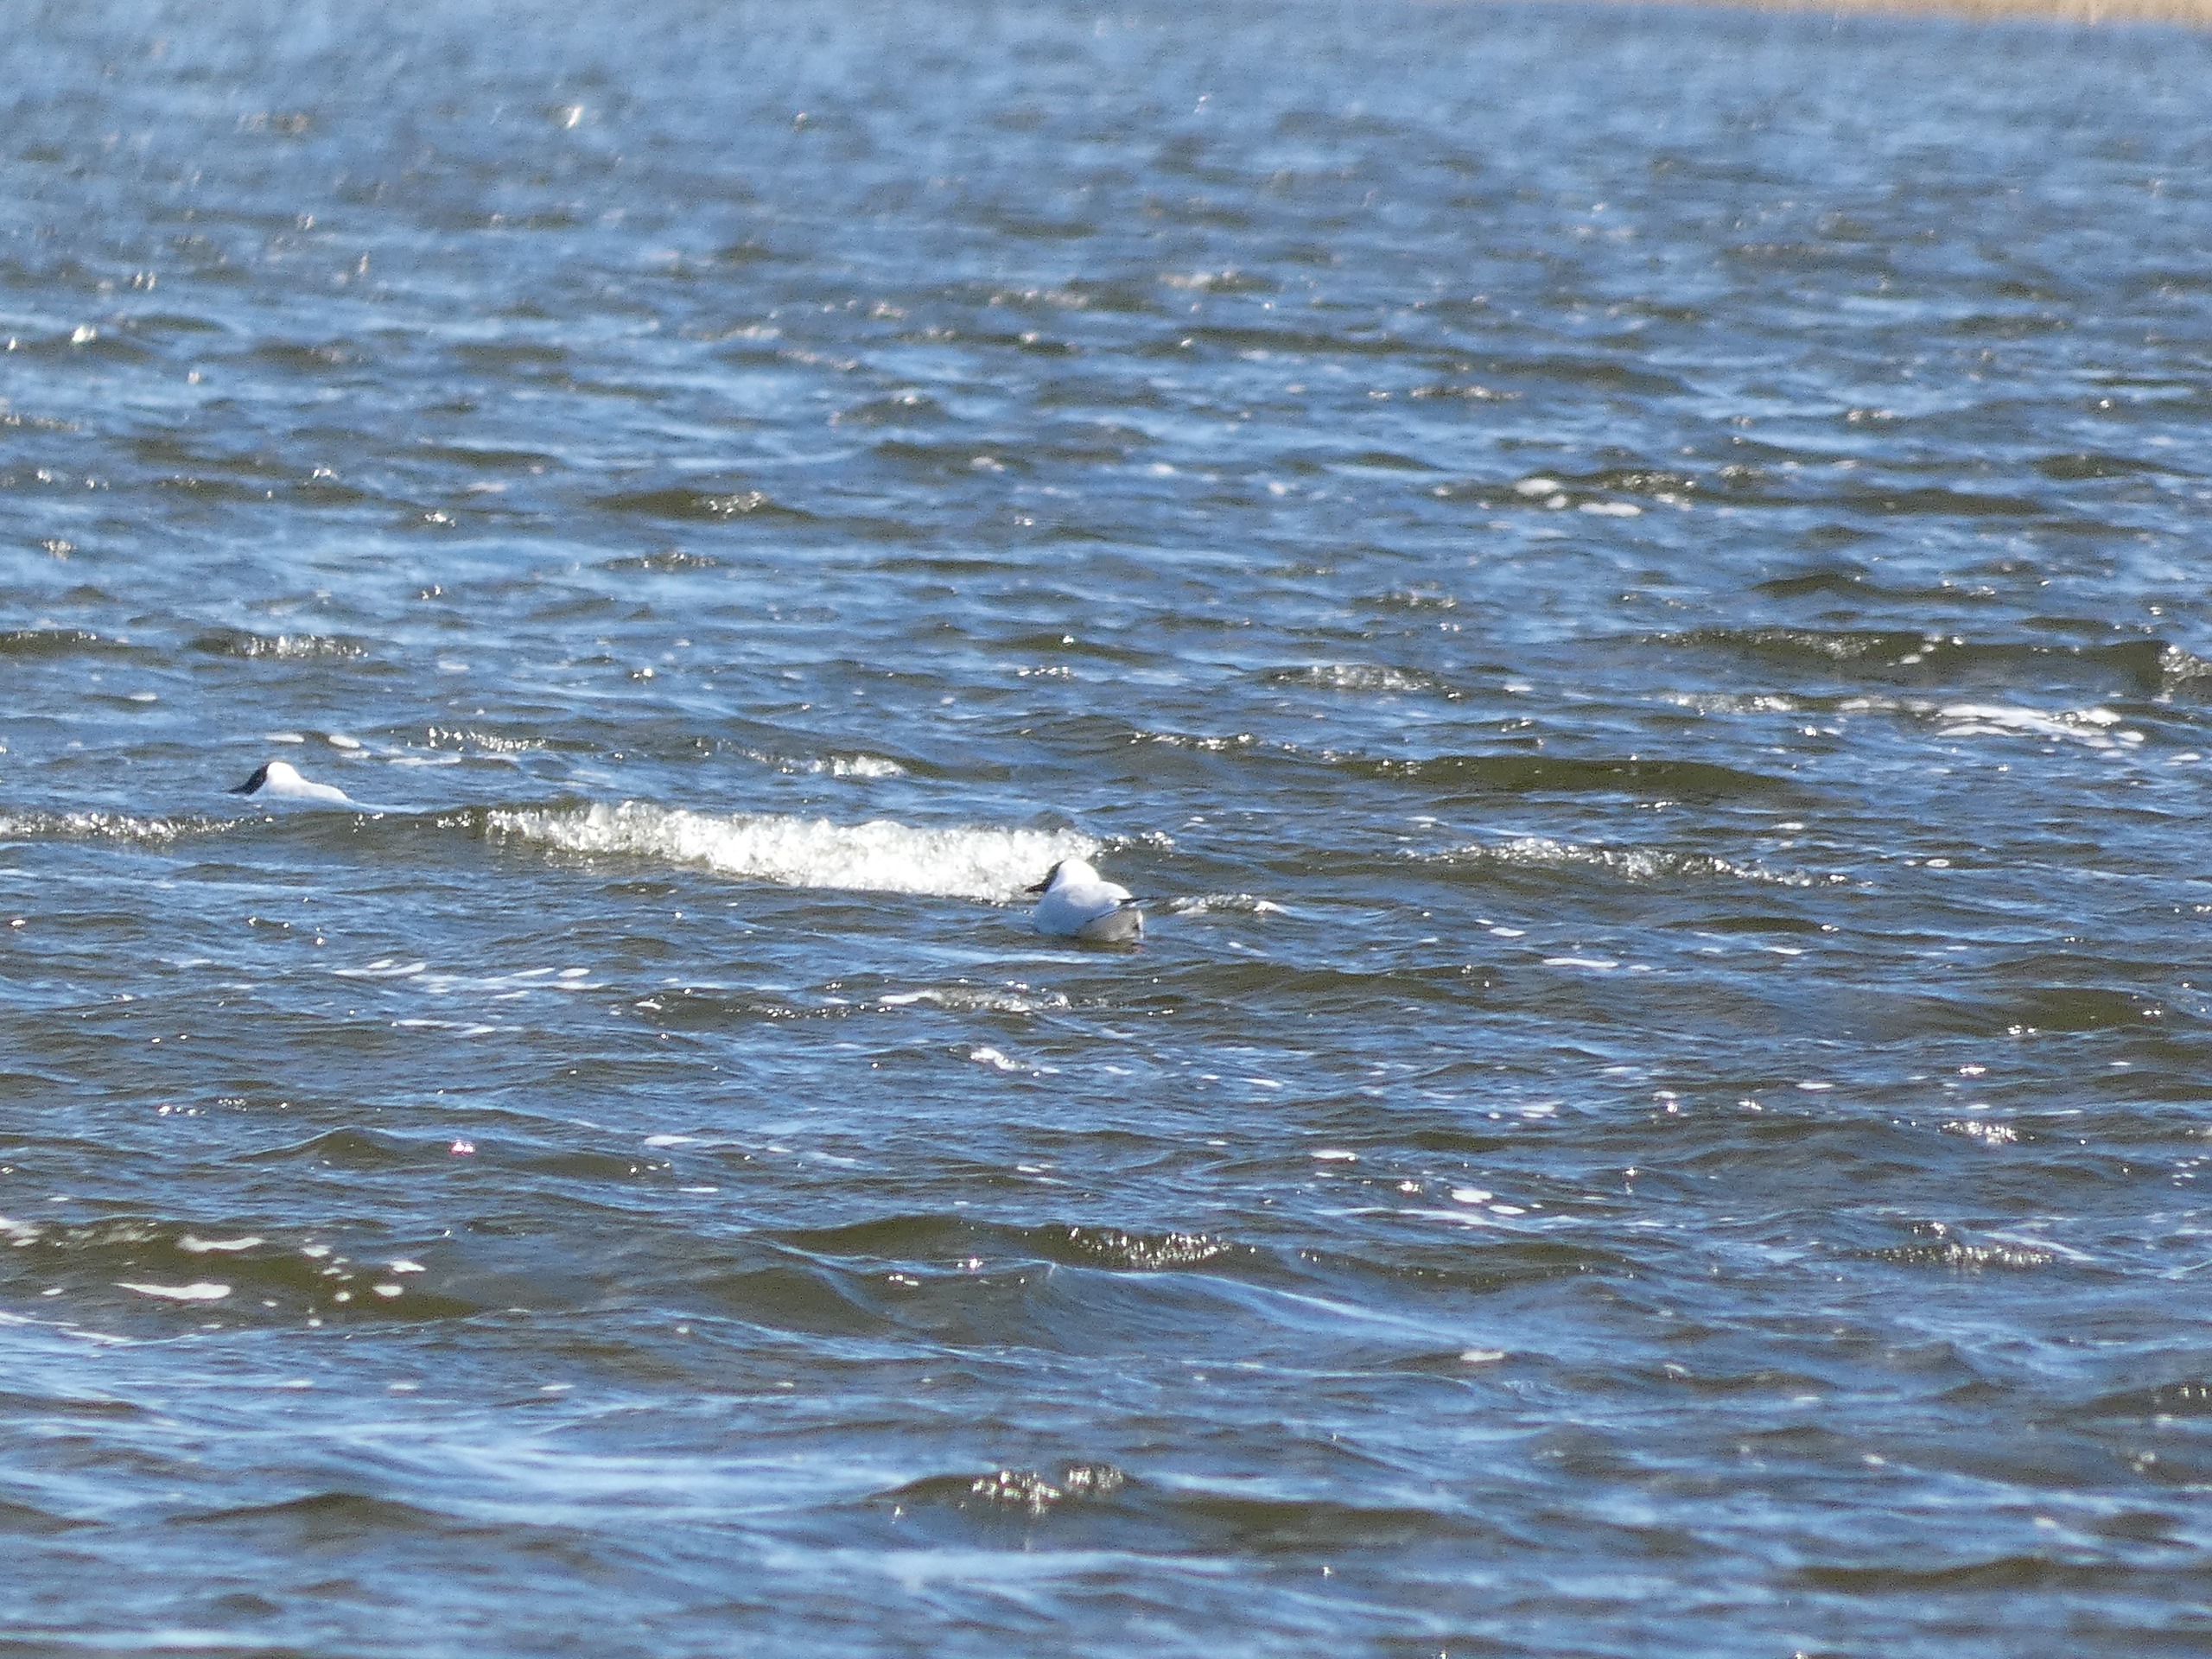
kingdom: Animalia
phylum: Chordata
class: Aves
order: Charadriiformes
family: Laridae
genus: Chroicocephalus
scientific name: Chroicocephalus ridibundus
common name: Hættemåge
